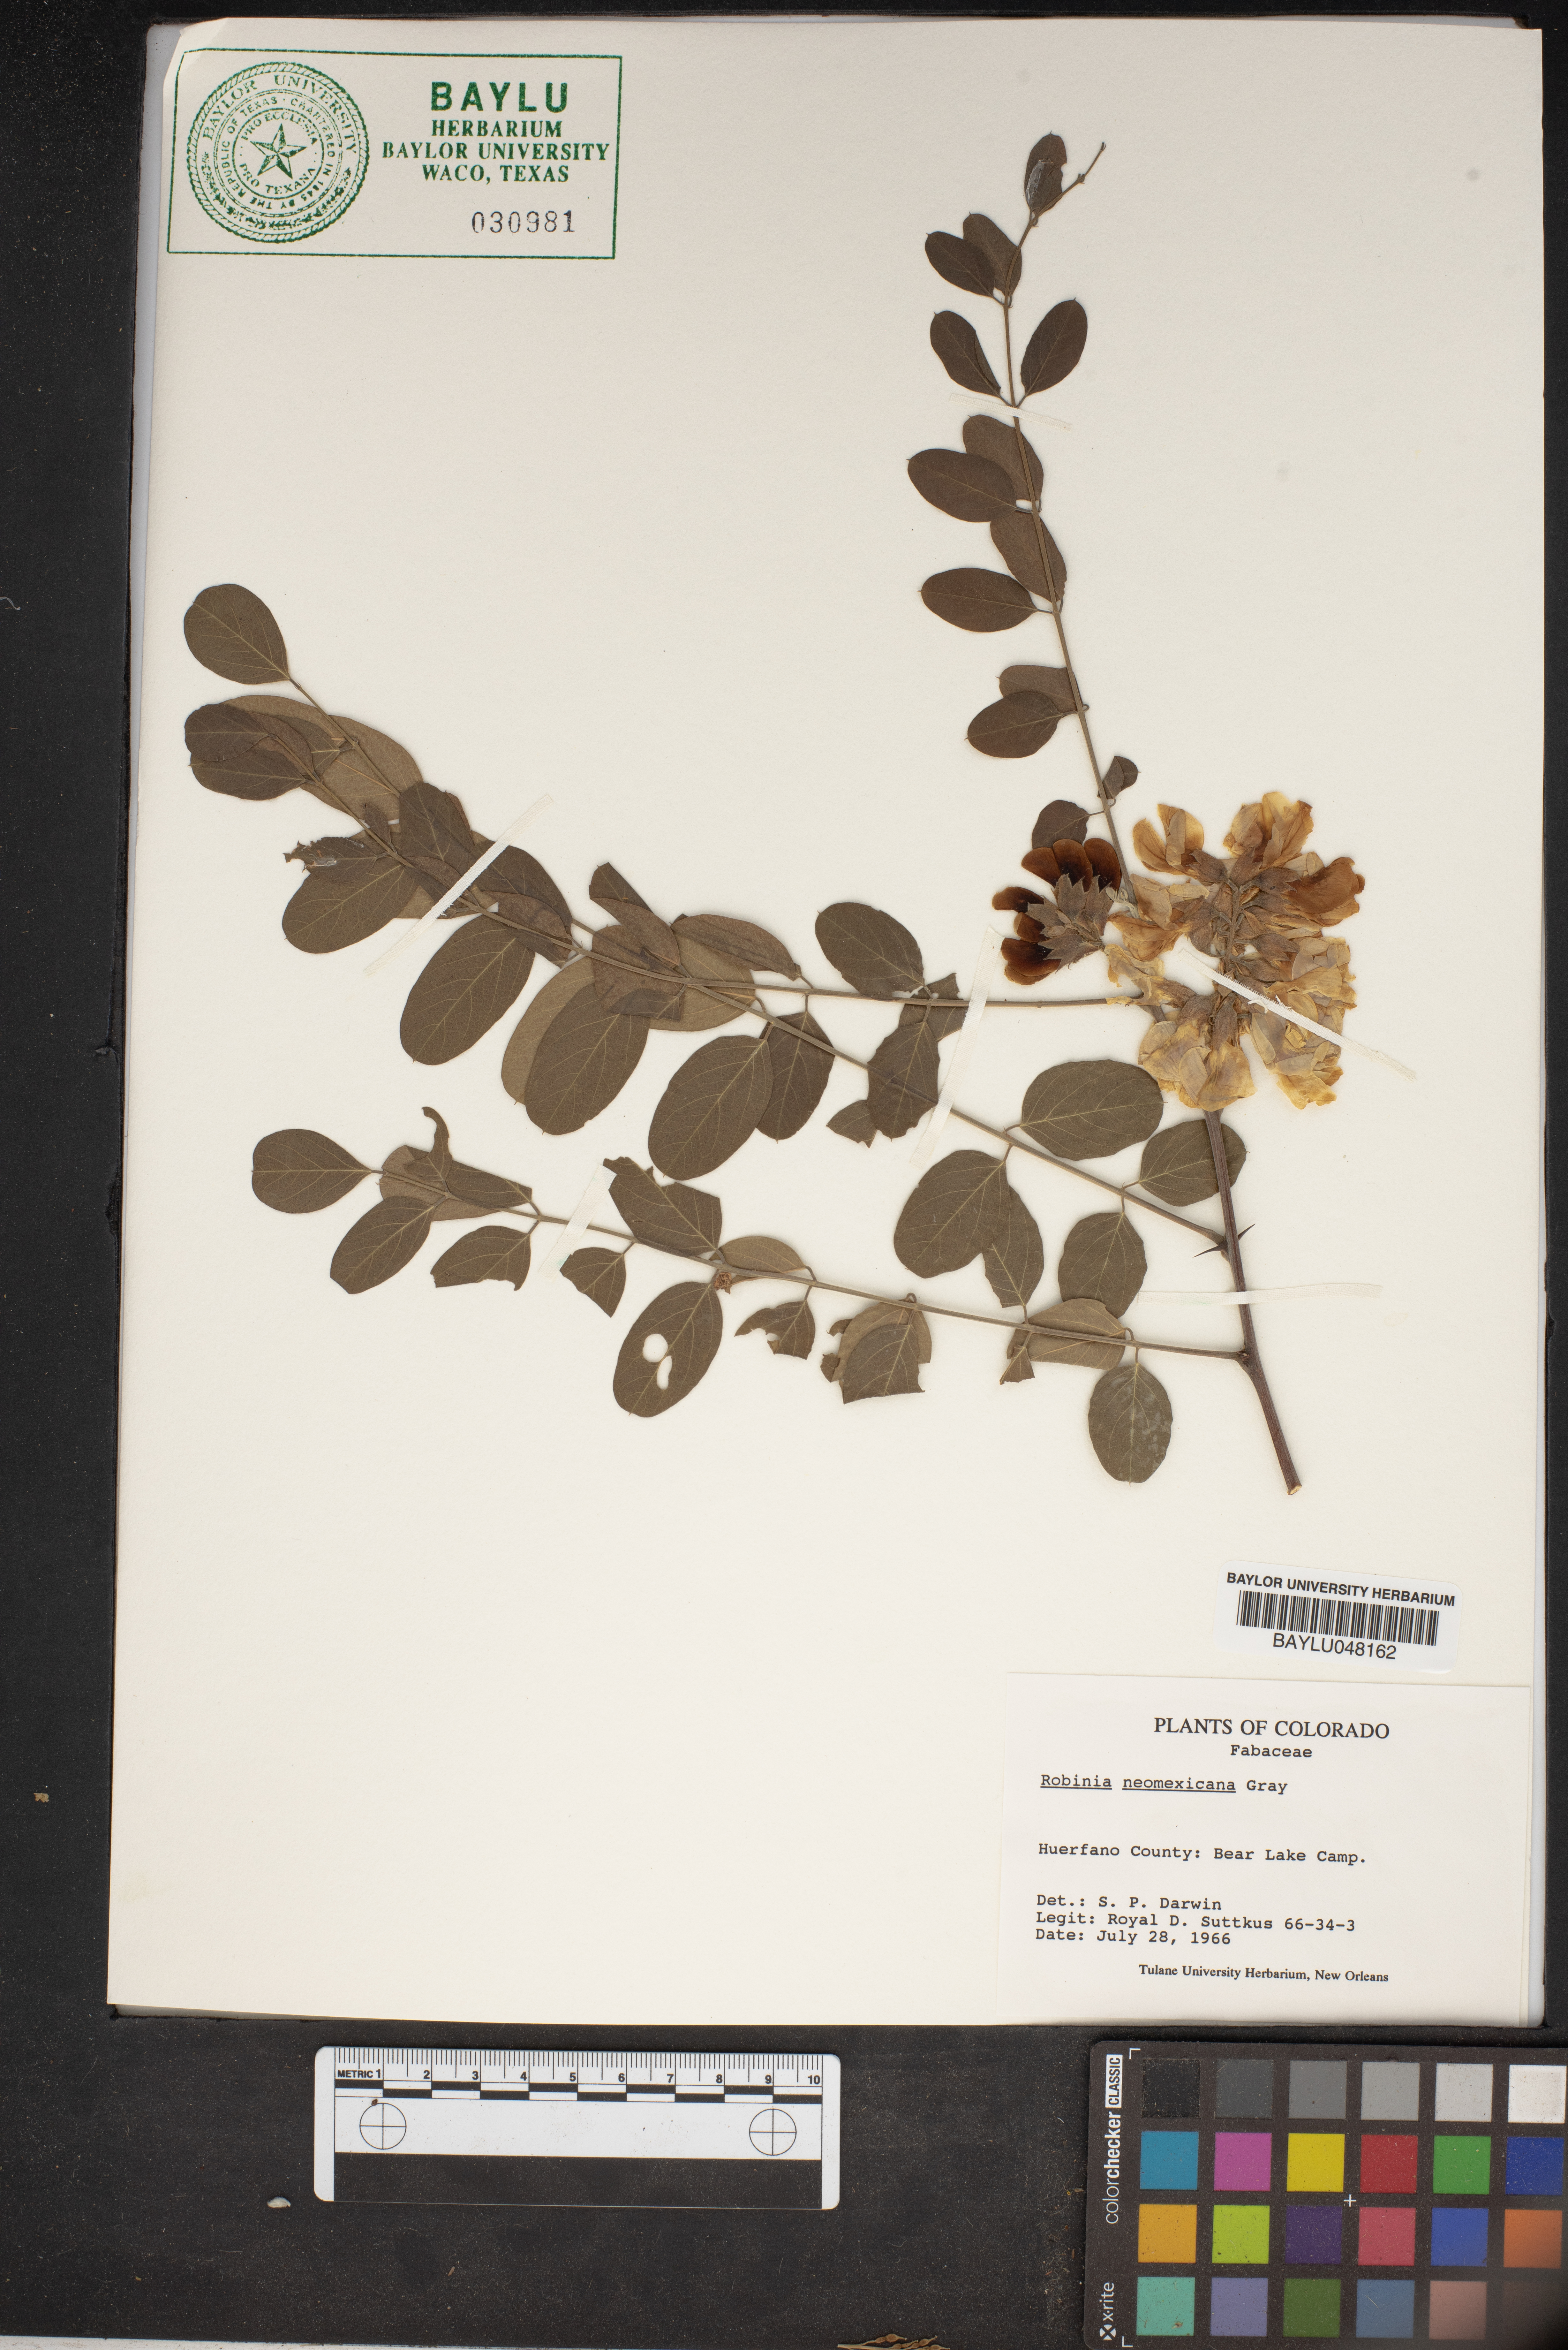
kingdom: Plantae
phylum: Tracheophyta
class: Magnoliopsida
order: Fabales
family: Fabaceae
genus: Robinia
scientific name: Robinia neomexicana
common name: New mexico locust
